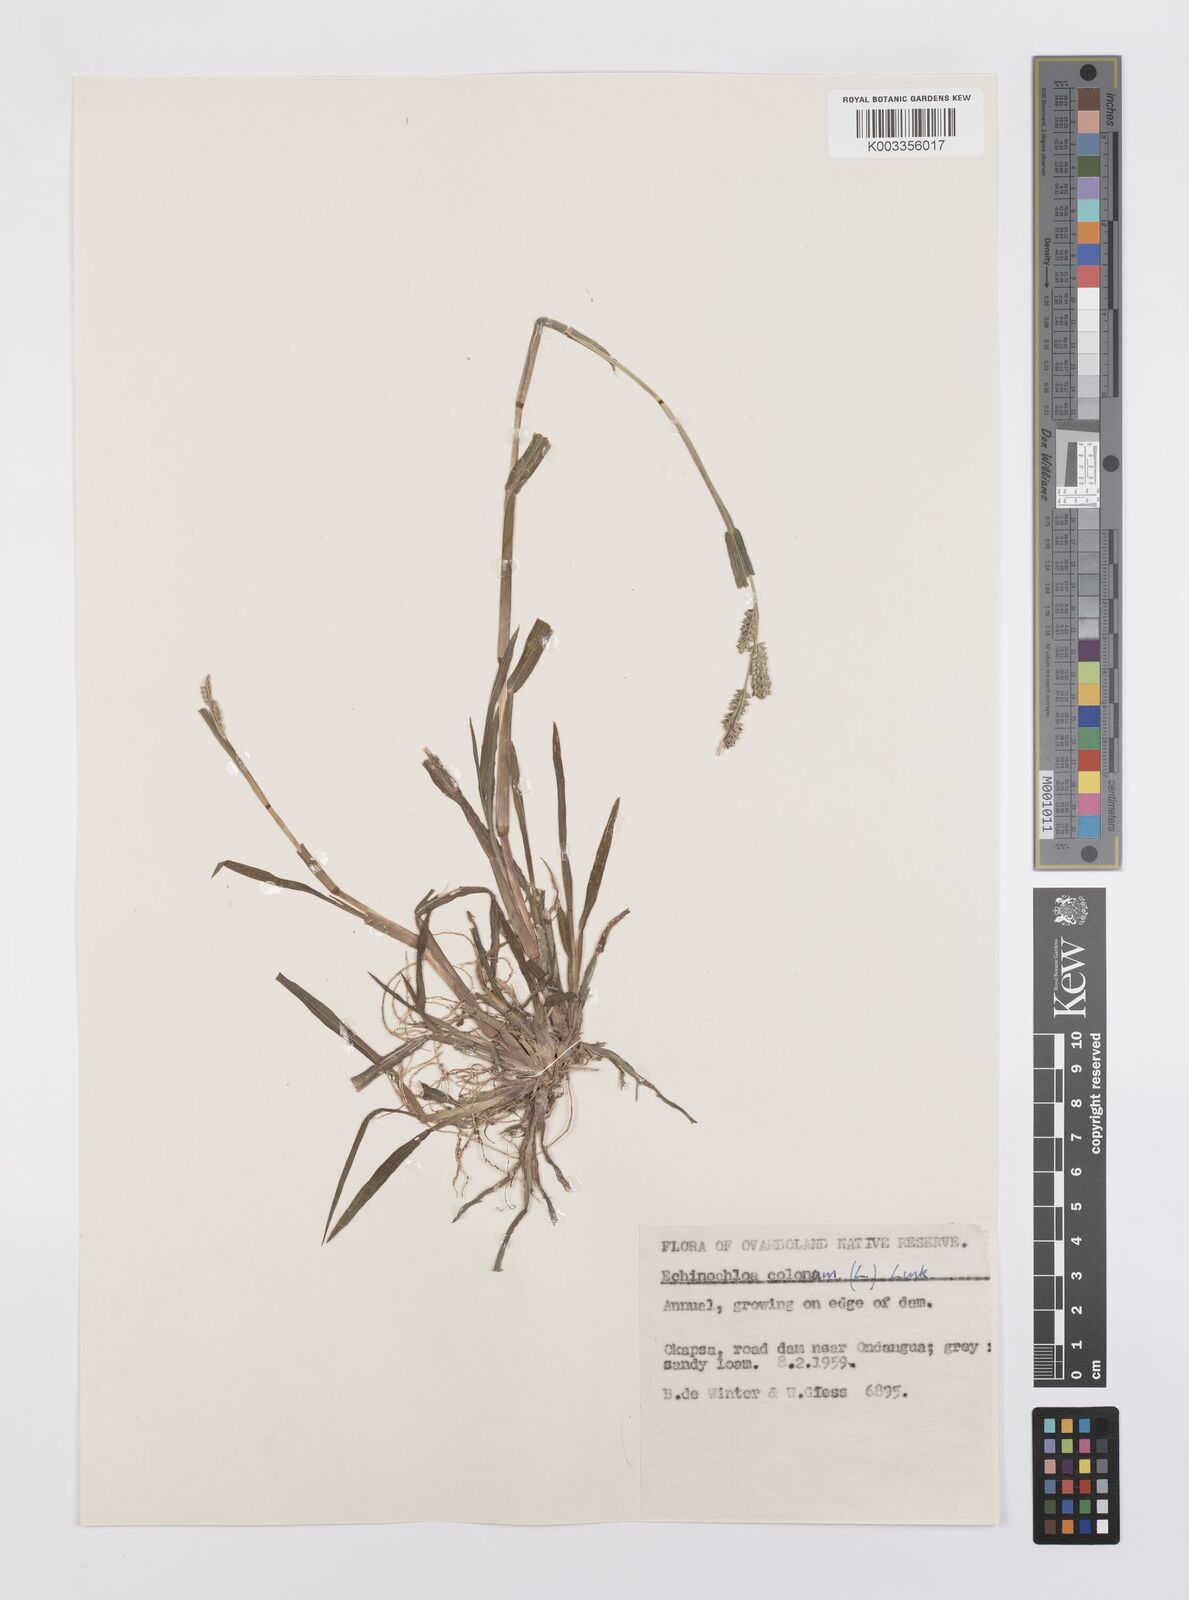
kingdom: Plantae
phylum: Tracheophyta
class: Liliopsida
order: Poales
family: Poaceae
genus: Echinochloa
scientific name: Echinochloa colonum
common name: Jungle rice
